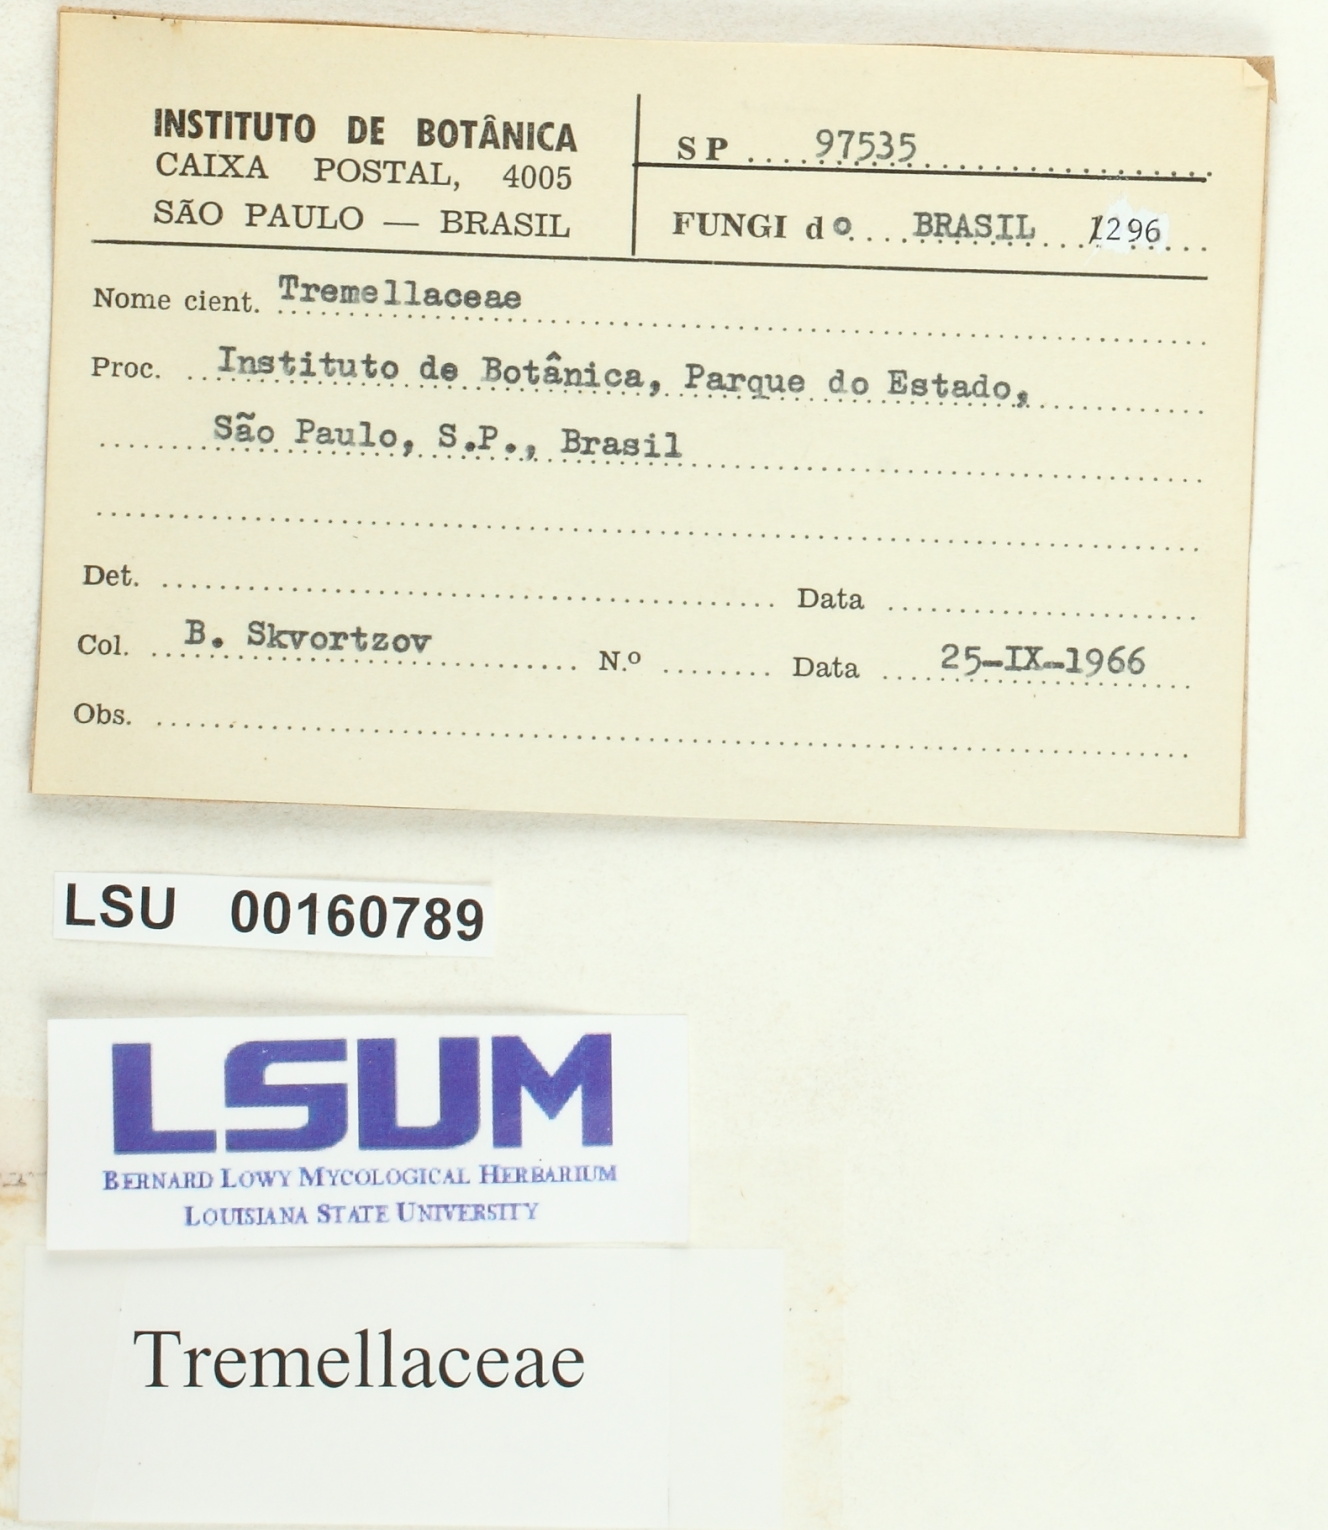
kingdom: Fungi
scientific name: Fungi
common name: Fungi
